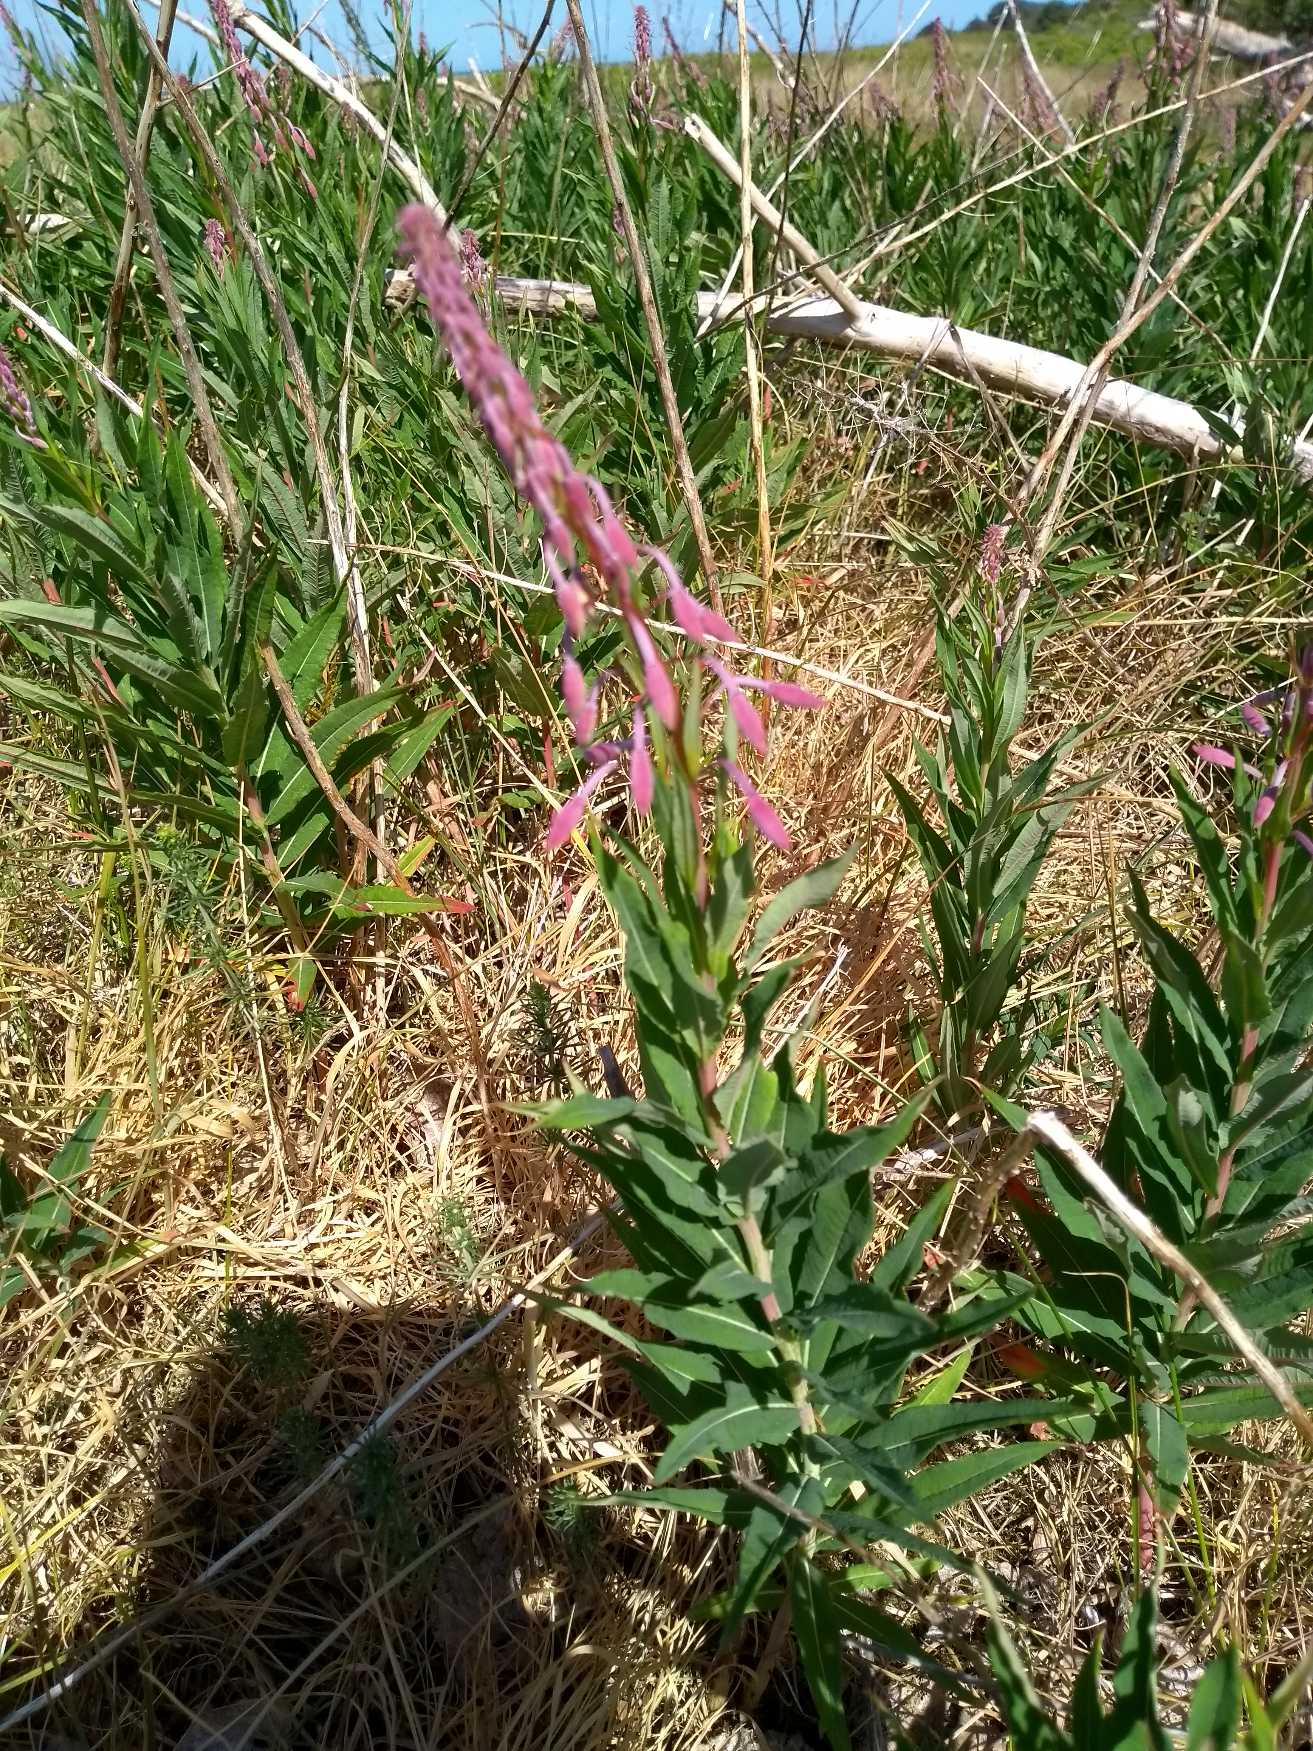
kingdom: Plantae
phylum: Tracheophyta
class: Magnoliopsida
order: Myrtales
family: Onagraceae
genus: Chamaenerion
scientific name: Chamaenerion angustifolium
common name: Gederams
